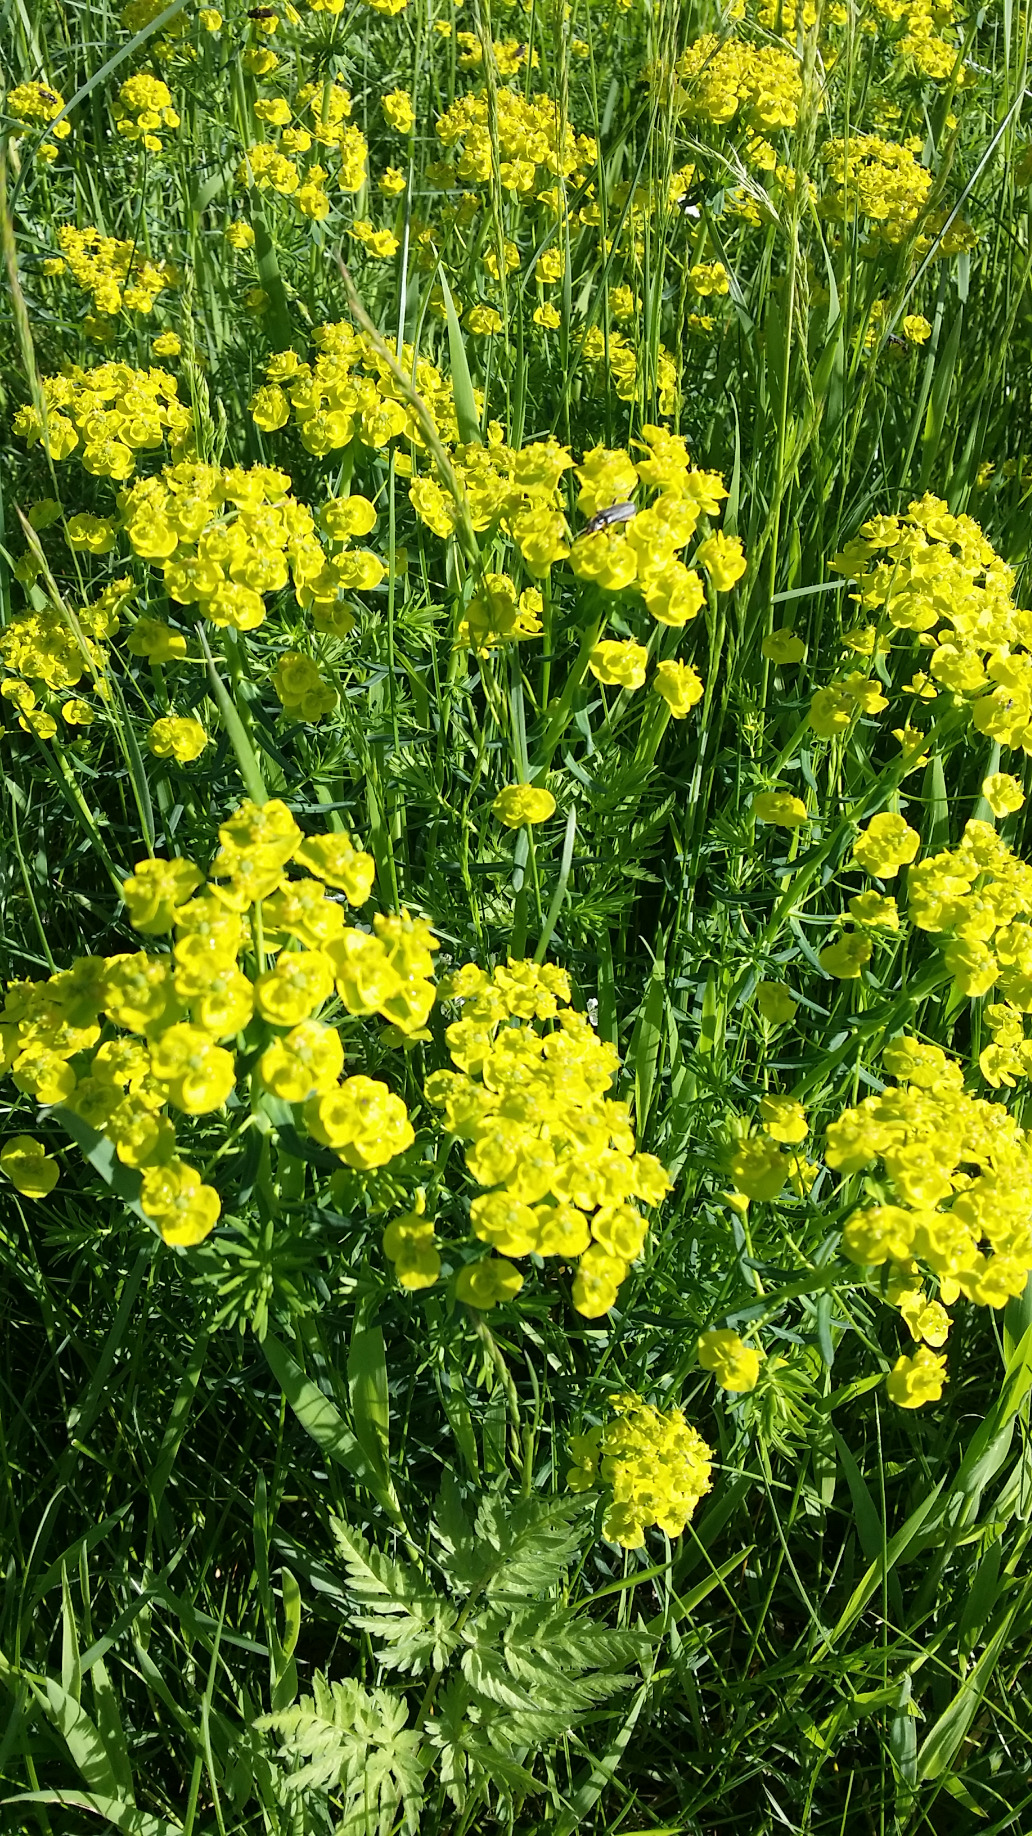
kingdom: Plantae
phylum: Tracheophyta
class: Magnoliopsida
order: Malpighiales
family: Euphorbiaceae
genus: Euphorbia
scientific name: Euphorbia cyparissias
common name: Cypres-vortemælk
